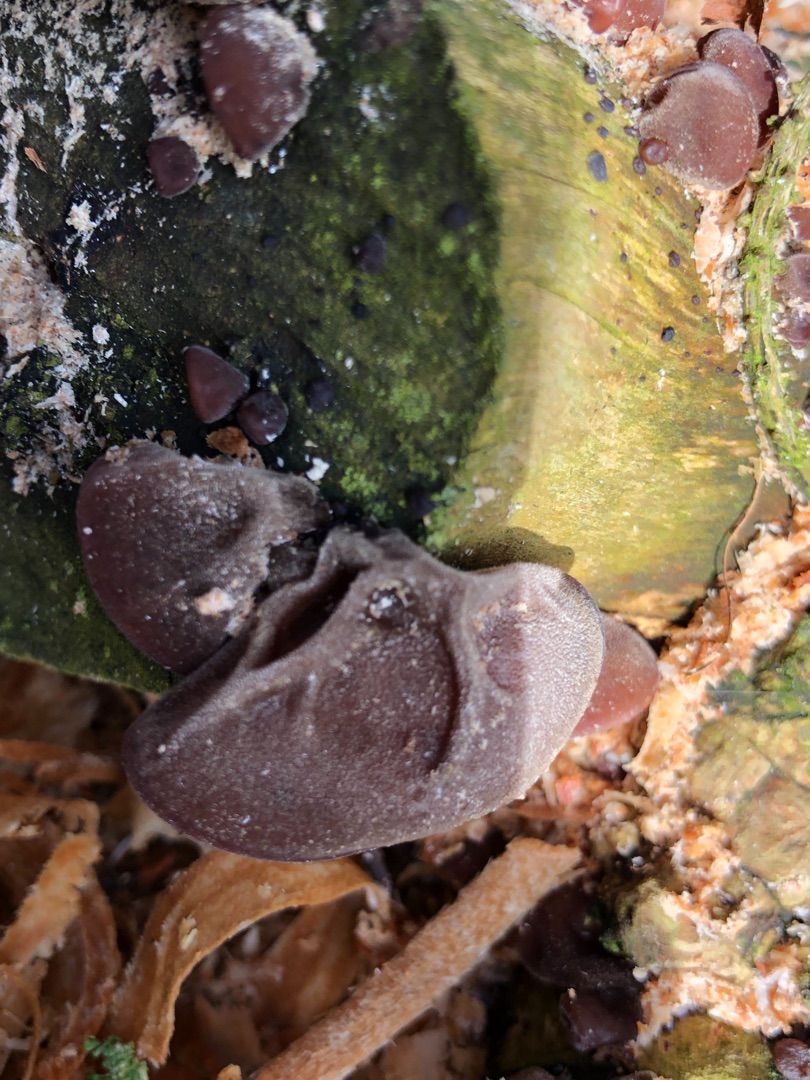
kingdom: Fungi
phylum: Basidiomycota
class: Agaricomycetes
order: Auriculariales
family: Auriculariaceae
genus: Auricularia
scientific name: Auricularia auricula-judae
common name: Almindelig judasøre
